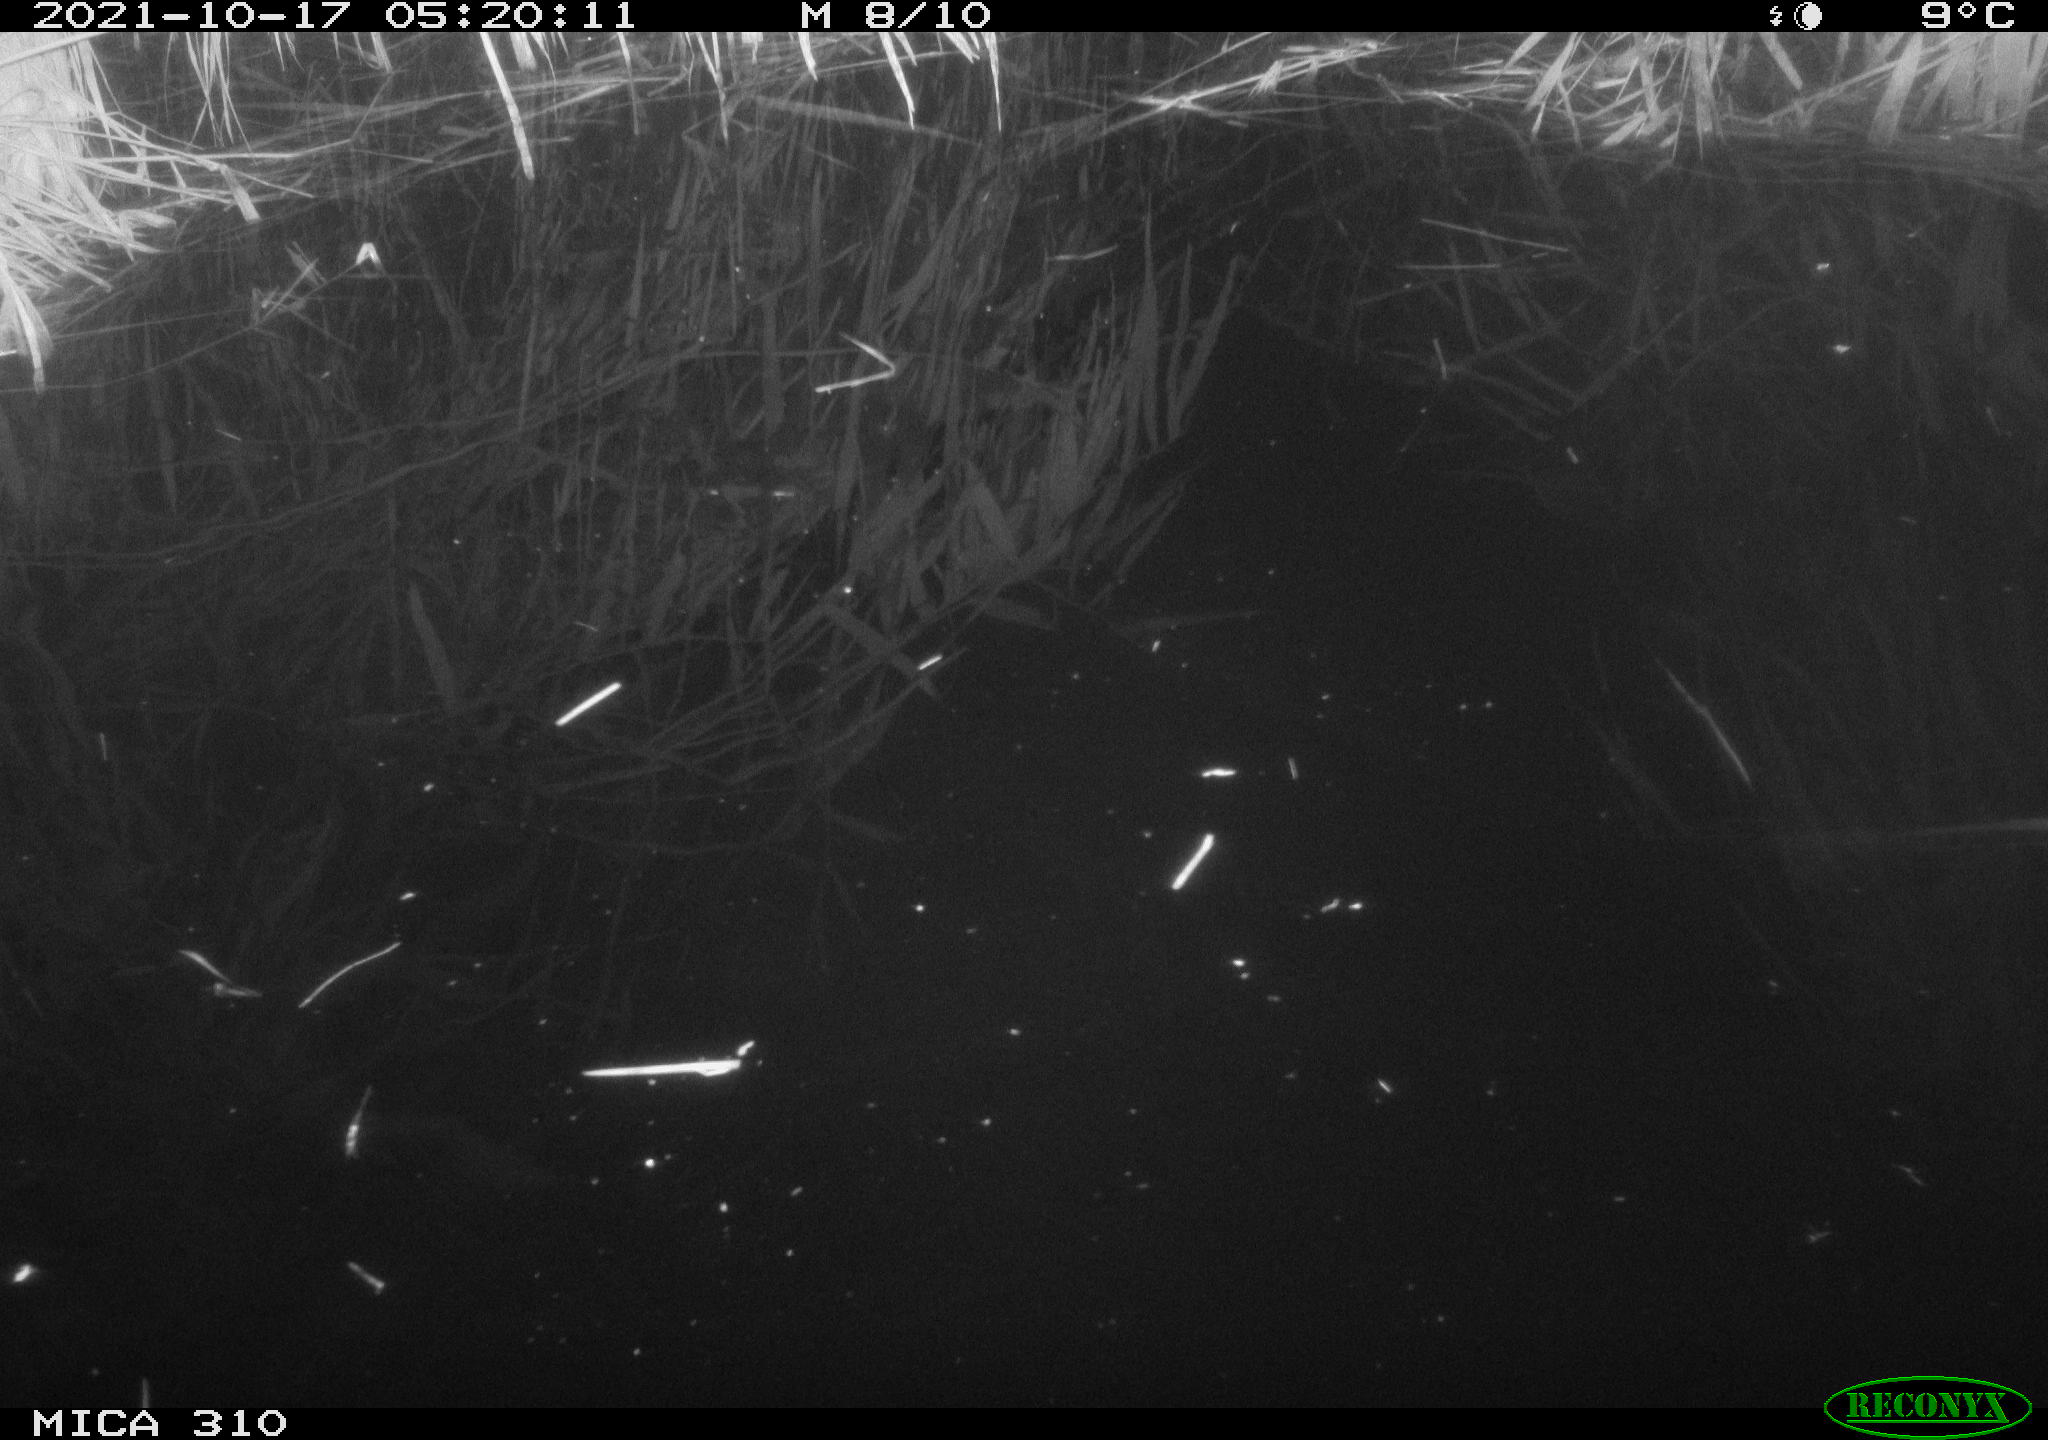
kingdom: Animalia
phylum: Chordata
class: Mammalia
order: Rodentia
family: Muridae
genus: Rattus
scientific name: Rattus norvegicus
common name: Brown rat
